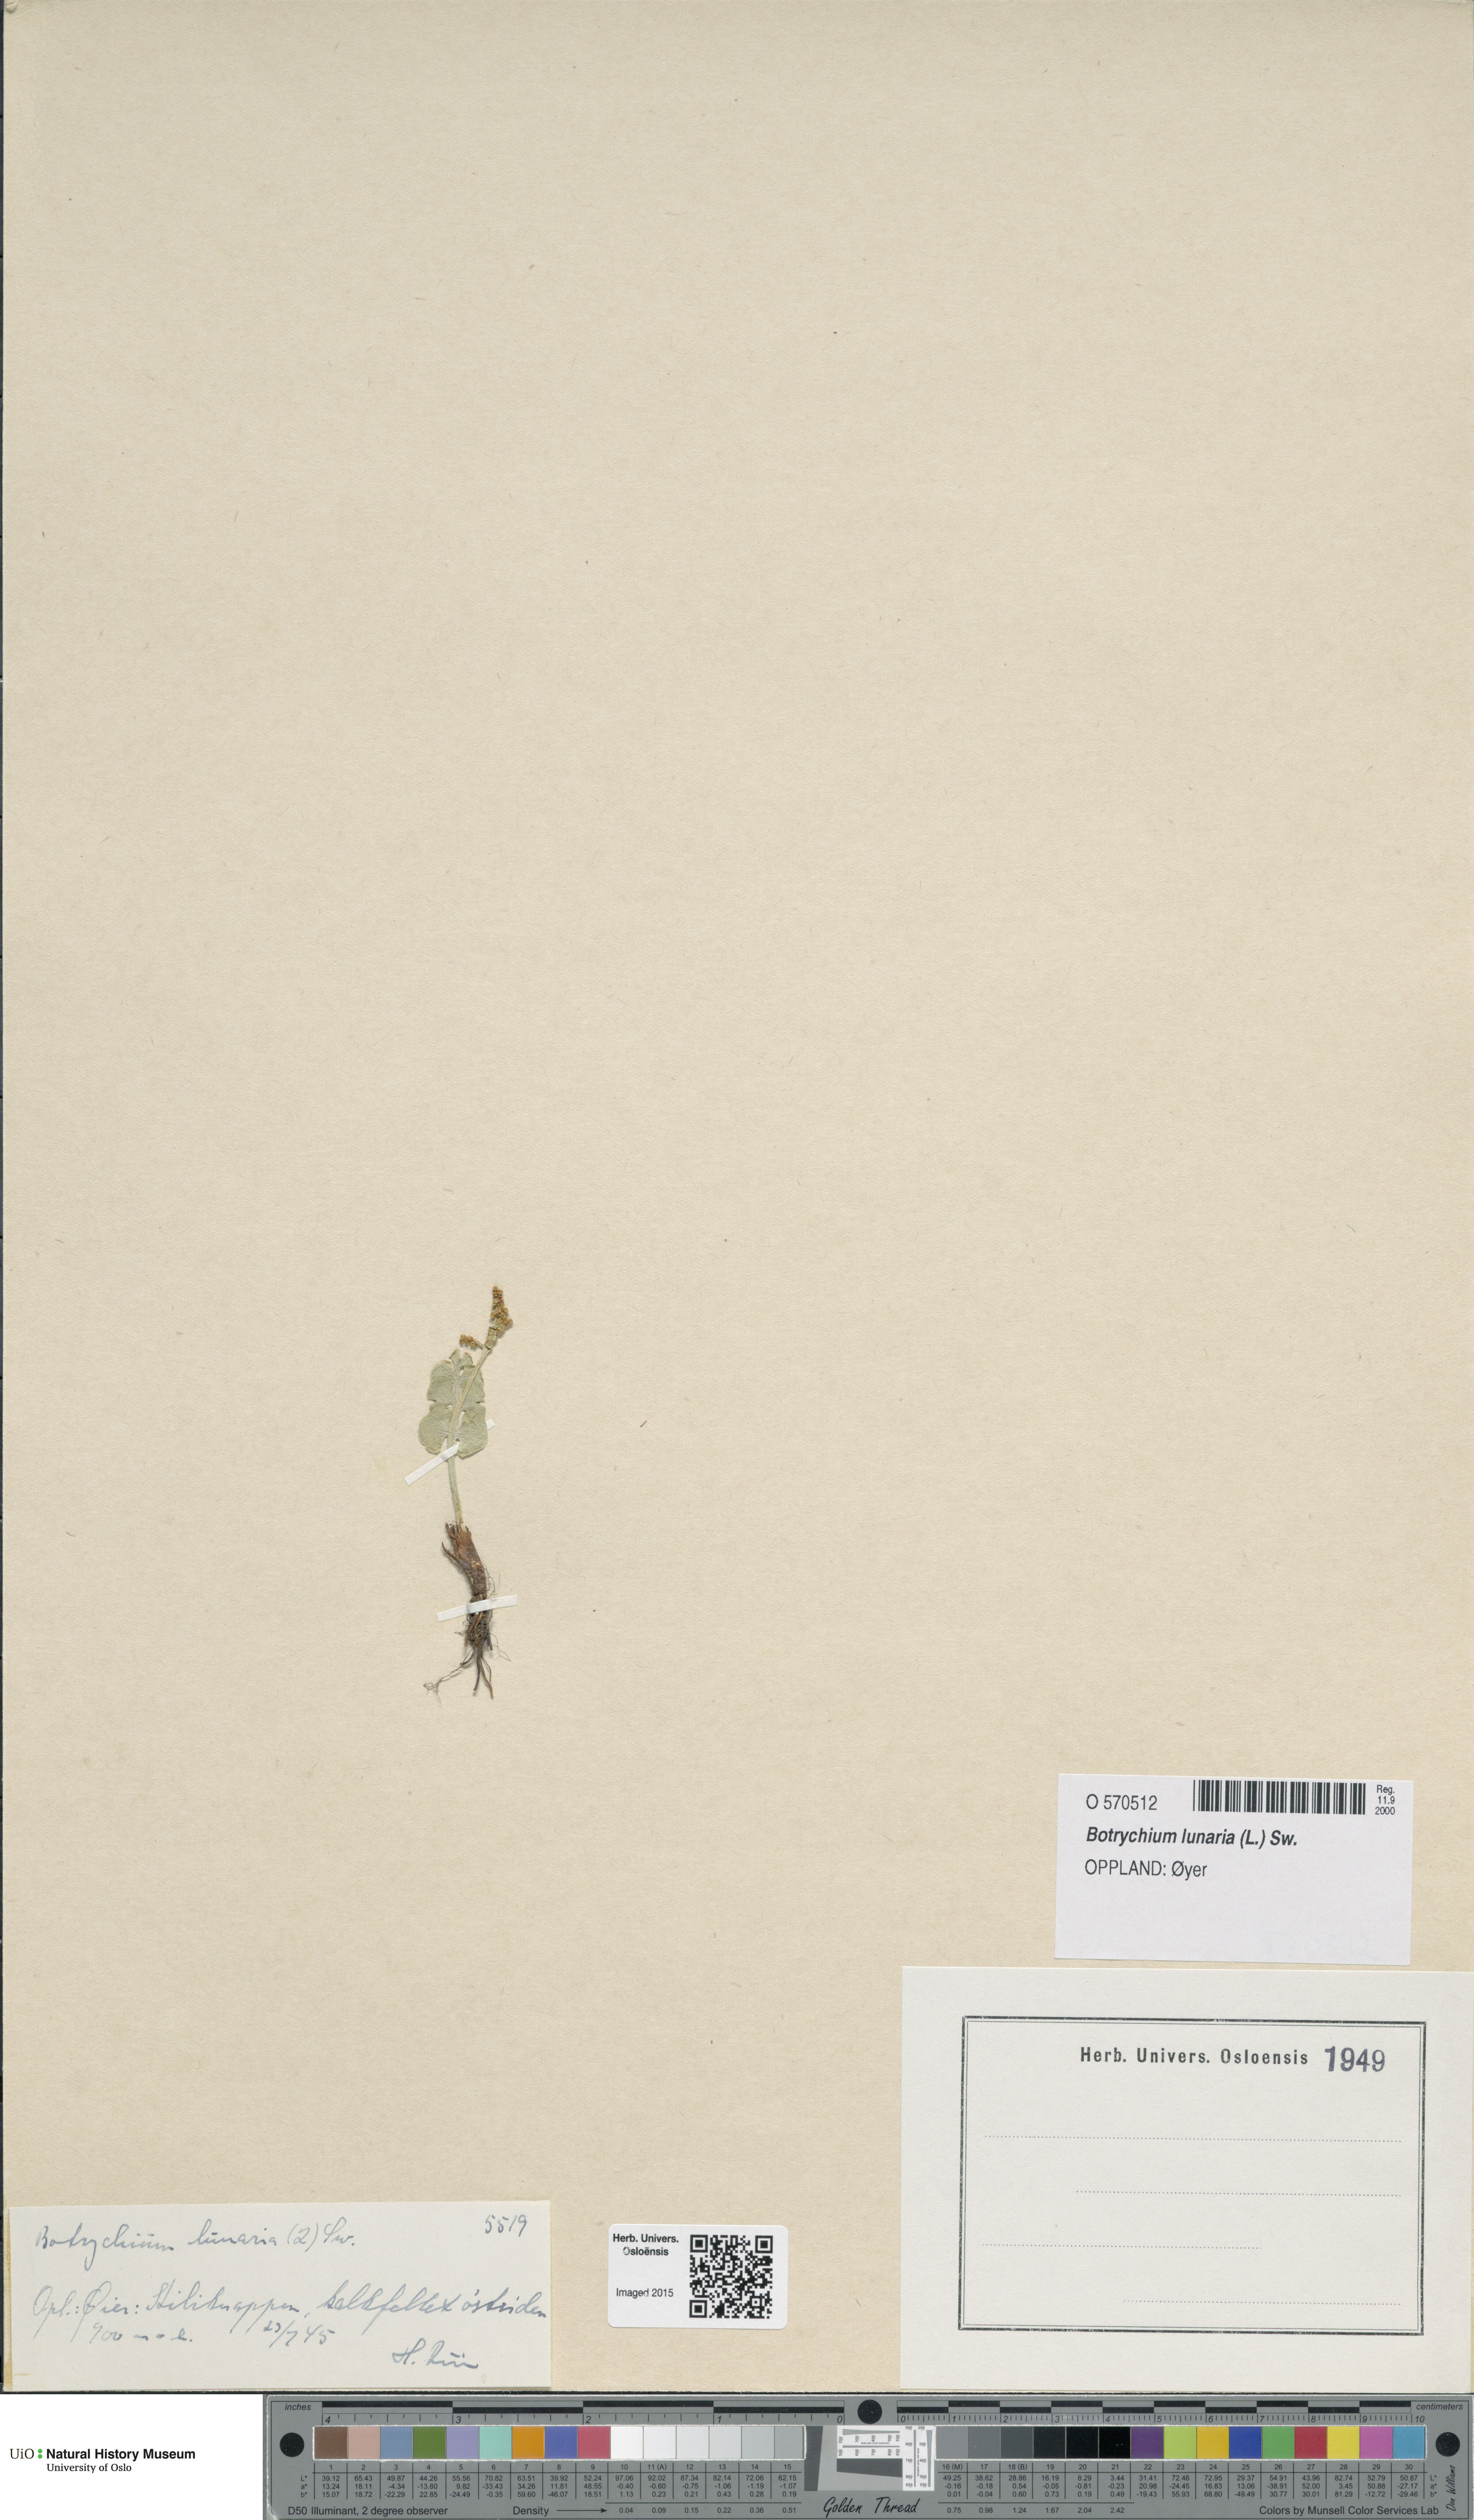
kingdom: Plantae
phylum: Tracheophyta
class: Polypodiopsida
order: Ophioglossales
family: Ophioglossaceae
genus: Botrychium
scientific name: Botrychium lunaria
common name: Moonwort
